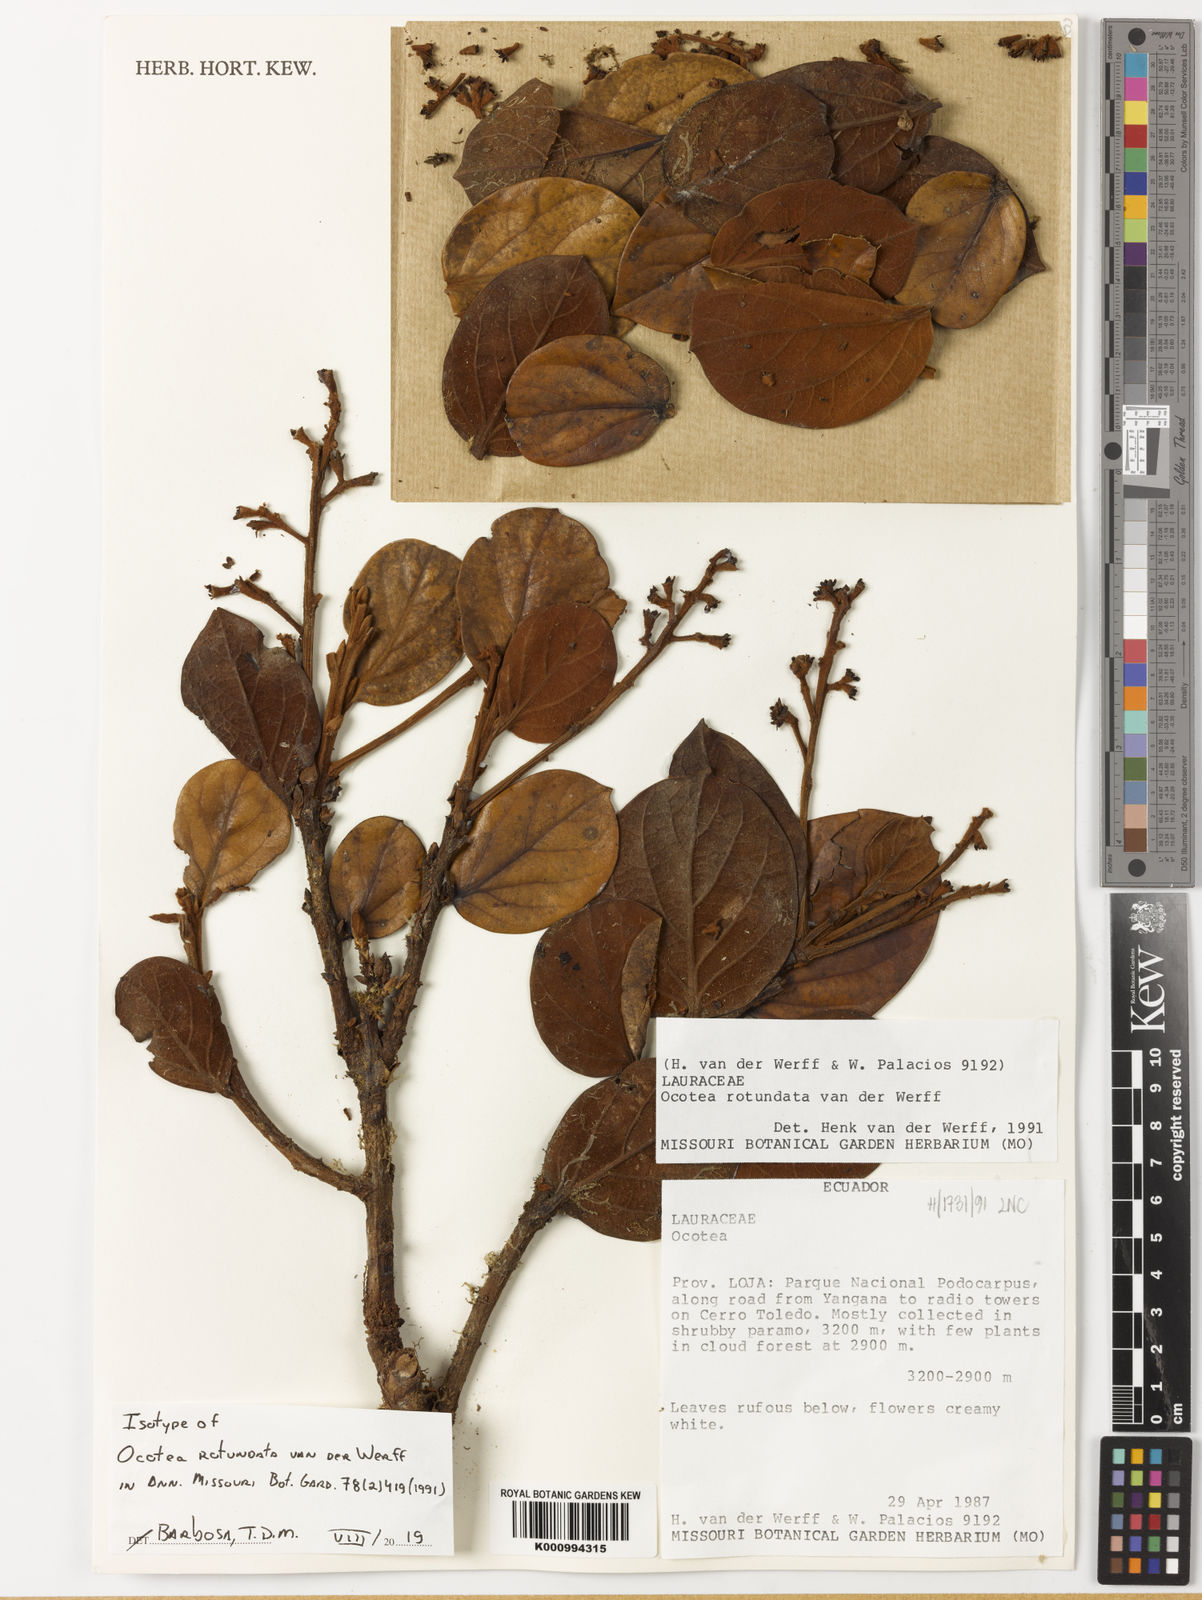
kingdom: Plantae
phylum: Tracheophyta
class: Magnoliopsida
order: Laurales
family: Lauraceae
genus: Ocotea
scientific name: Ocotea rotundata
